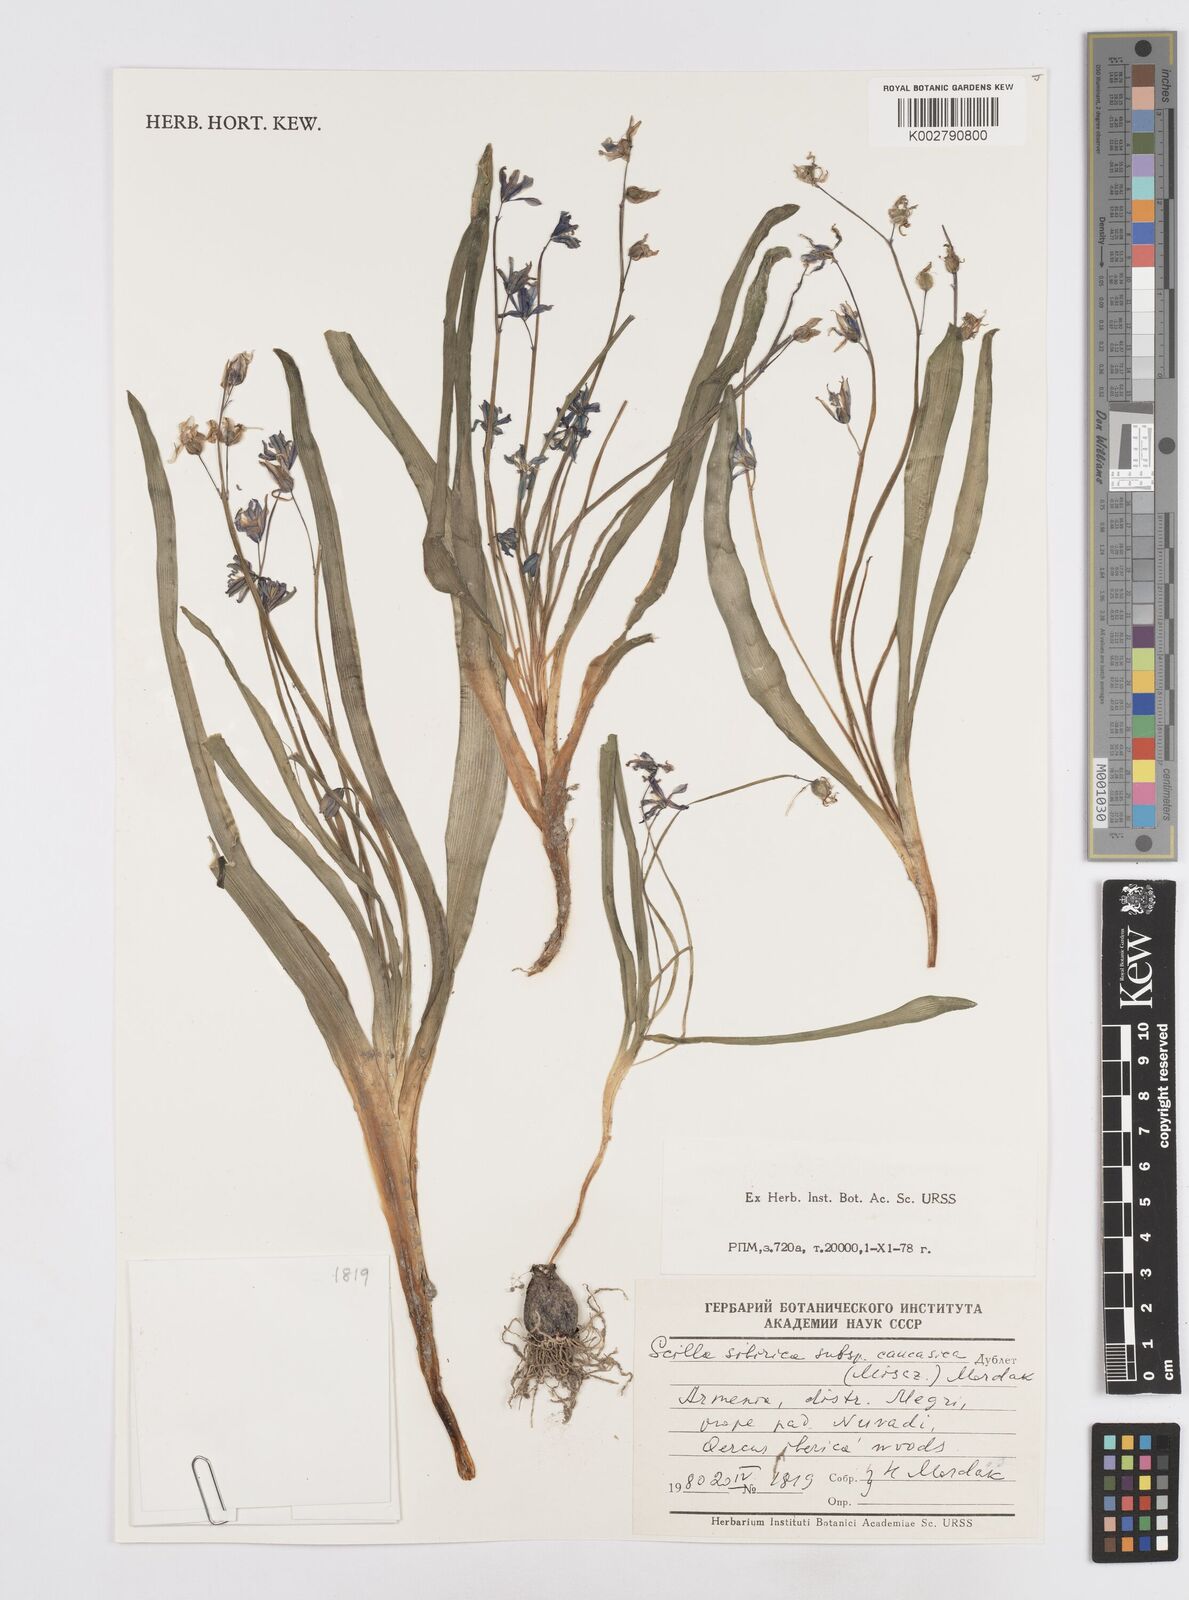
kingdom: Plantae
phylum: Tracheophyta
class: Liliopsida
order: Asparagales
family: Asparagaceae
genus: Scilla
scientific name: Scilla siberica
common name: Siberian squill
